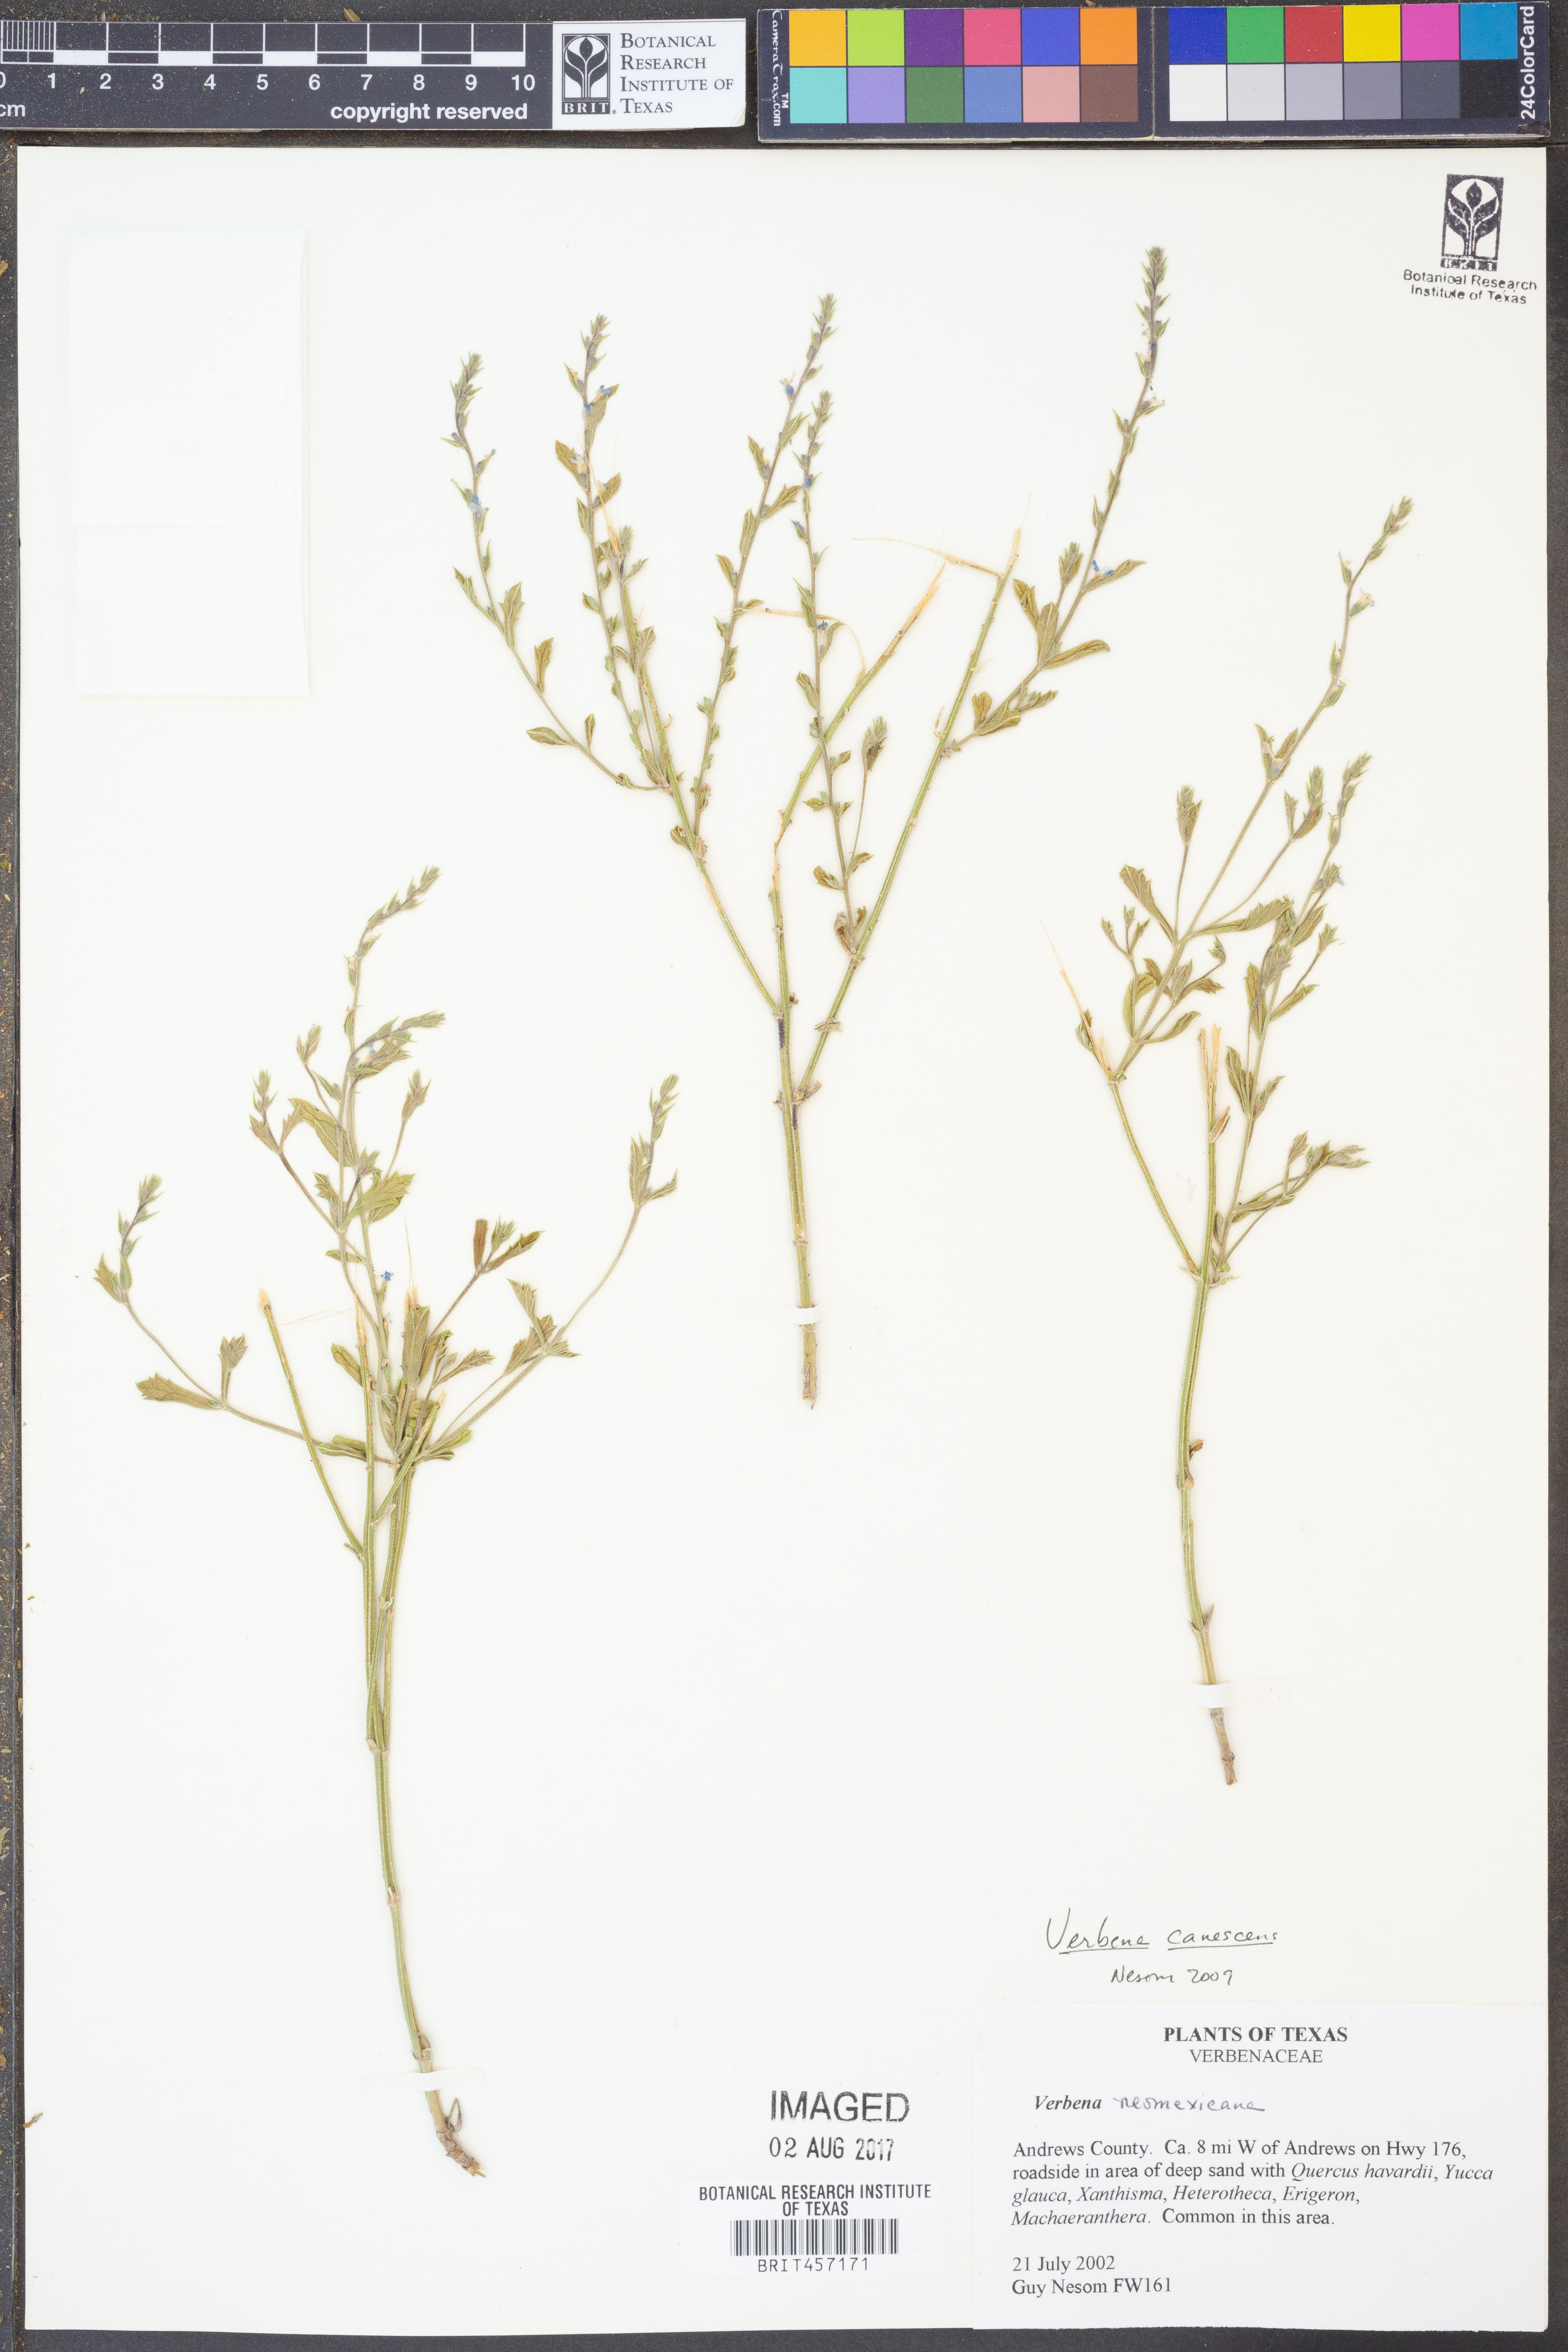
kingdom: Plantae
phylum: Tracheophyta
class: Magnoliopsida
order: Lamiales
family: Verbenaceae
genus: Verbena
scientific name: Verbena canescens
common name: Gray vervain
